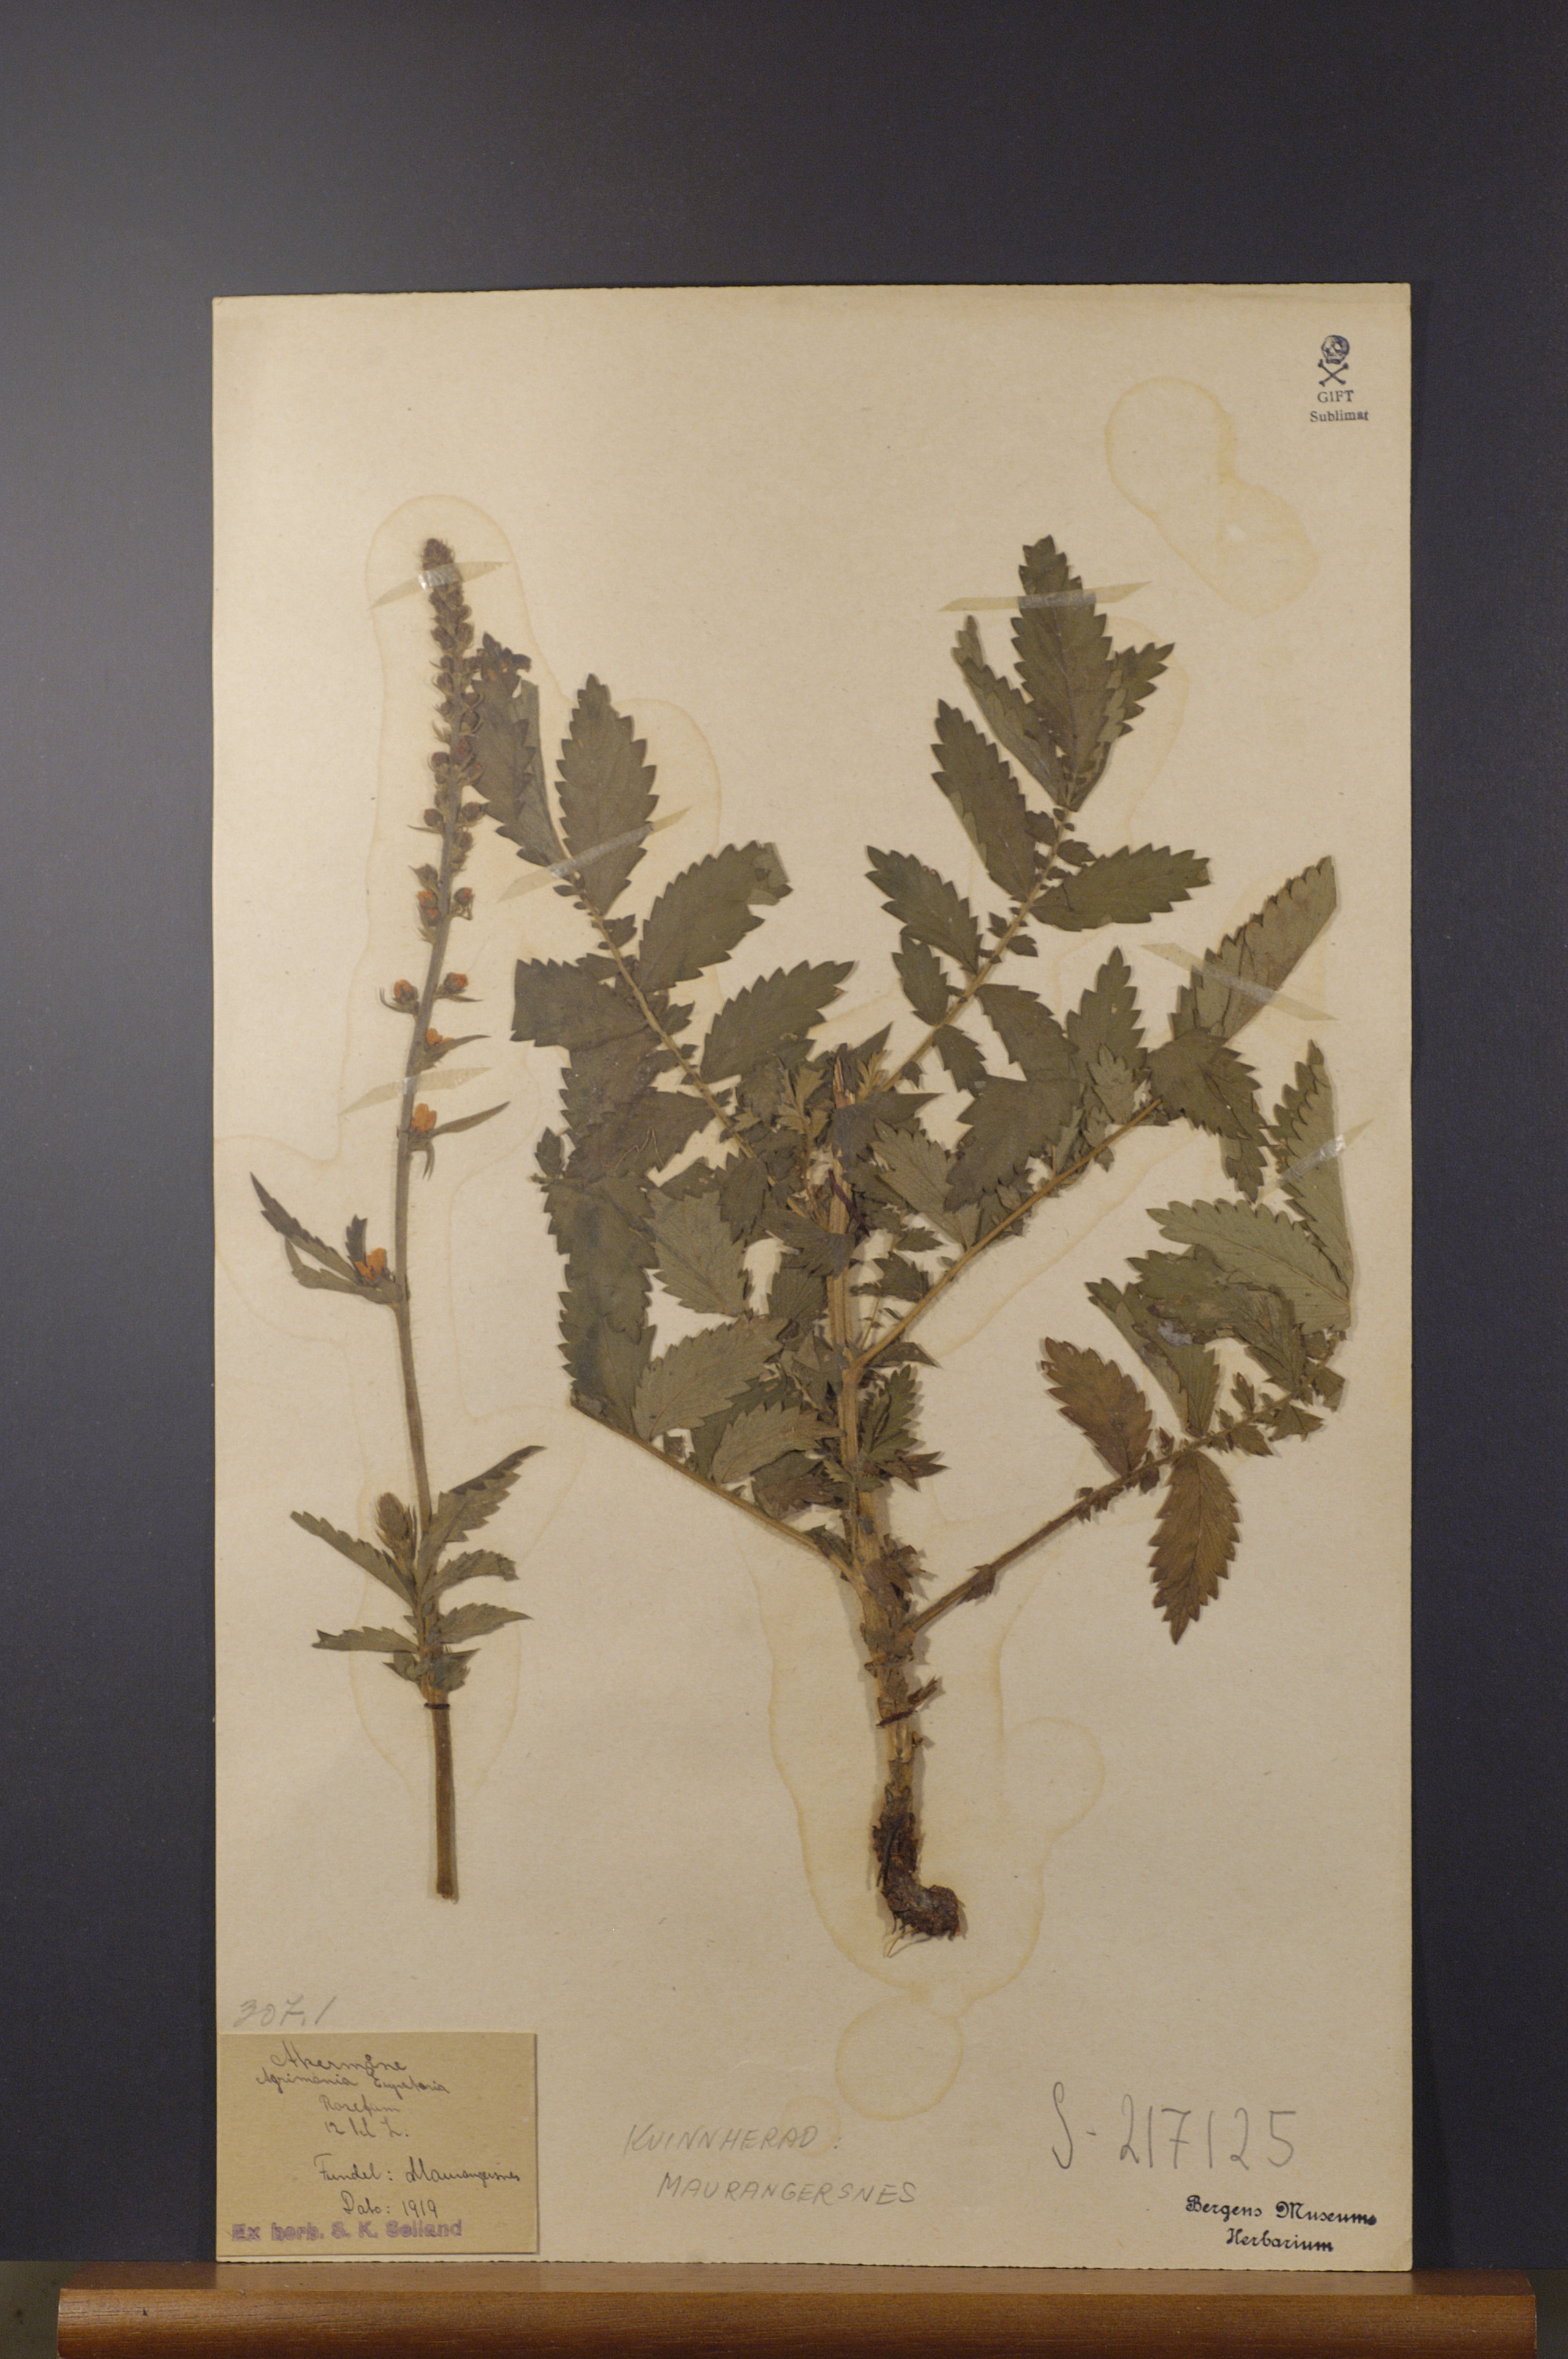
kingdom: Plantae
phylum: Tracheophyta
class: Magnoliopsida
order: Rosales
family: Rosaceae
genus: Agrimonia
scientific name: Agrimonia eupatoria
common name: Agrimony
